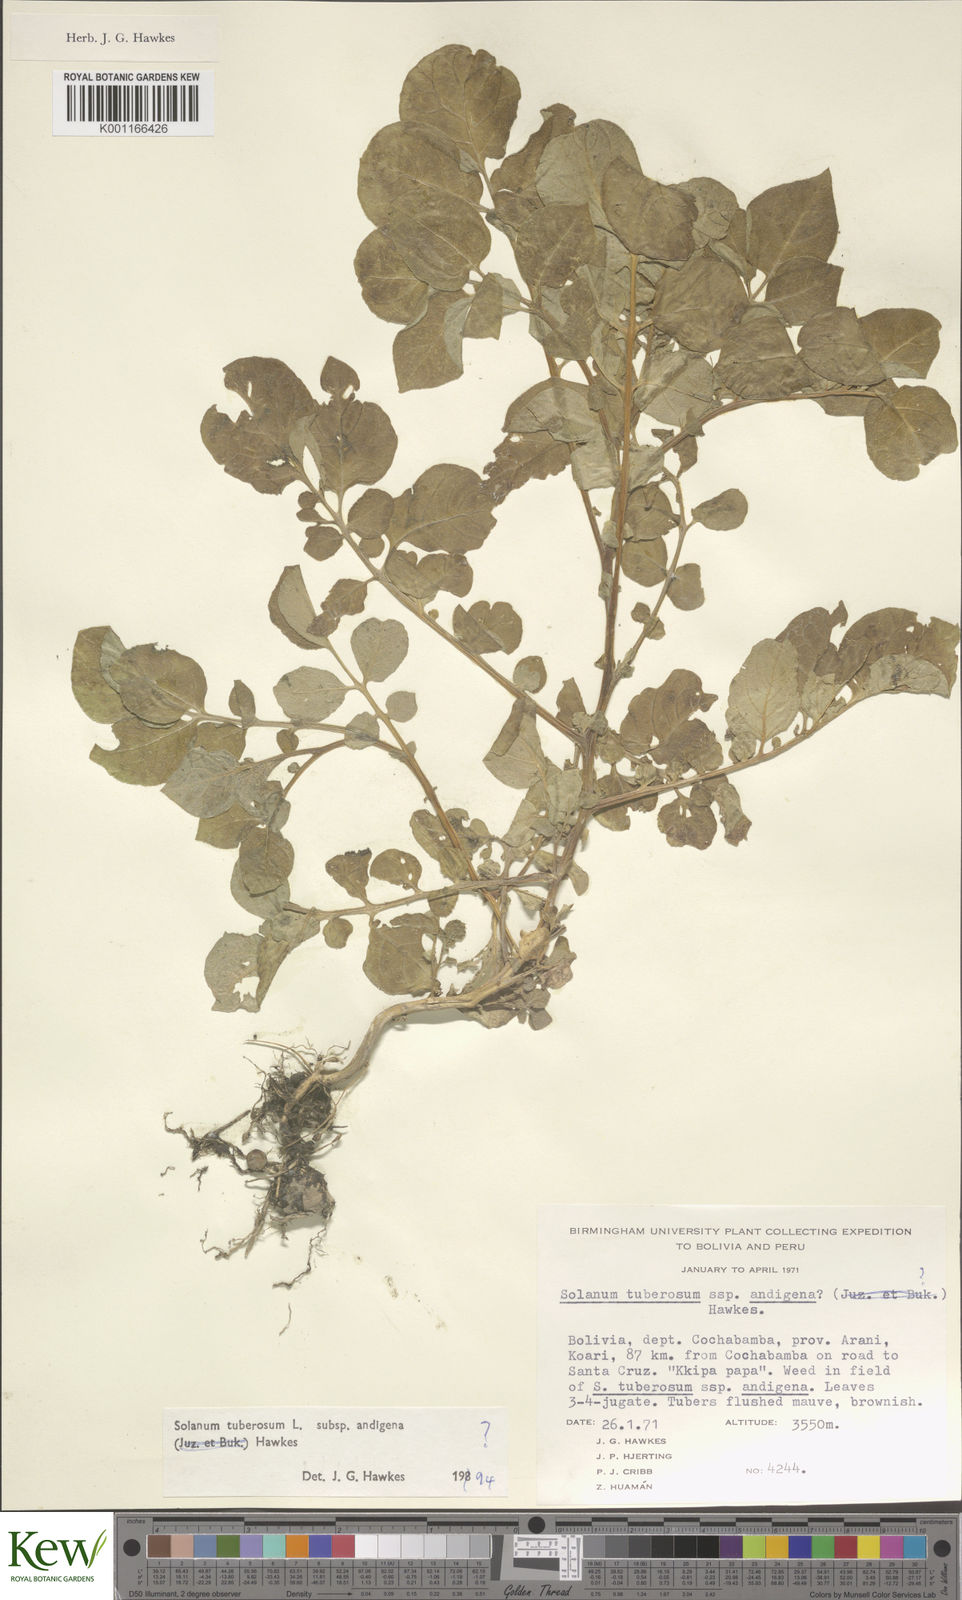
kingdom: Plantae
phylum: Tracheophyta
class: Magnoliopsida
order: Solanales
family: Solanaceae
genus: Solanum
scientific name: Solanum tuberosum
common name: Potato
